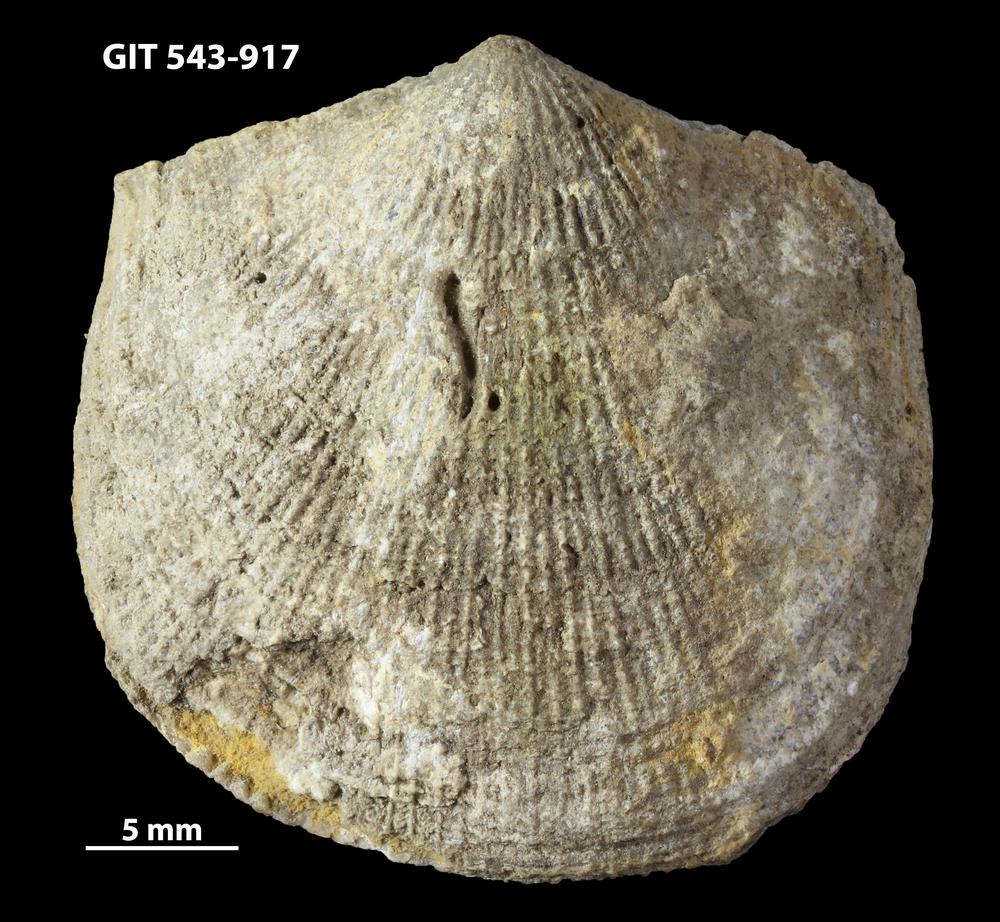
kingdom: Animalia
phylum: Brachiopoda
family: Gonambonitidae
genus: Estlandia
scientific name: Estlandia Orthisina marginata
